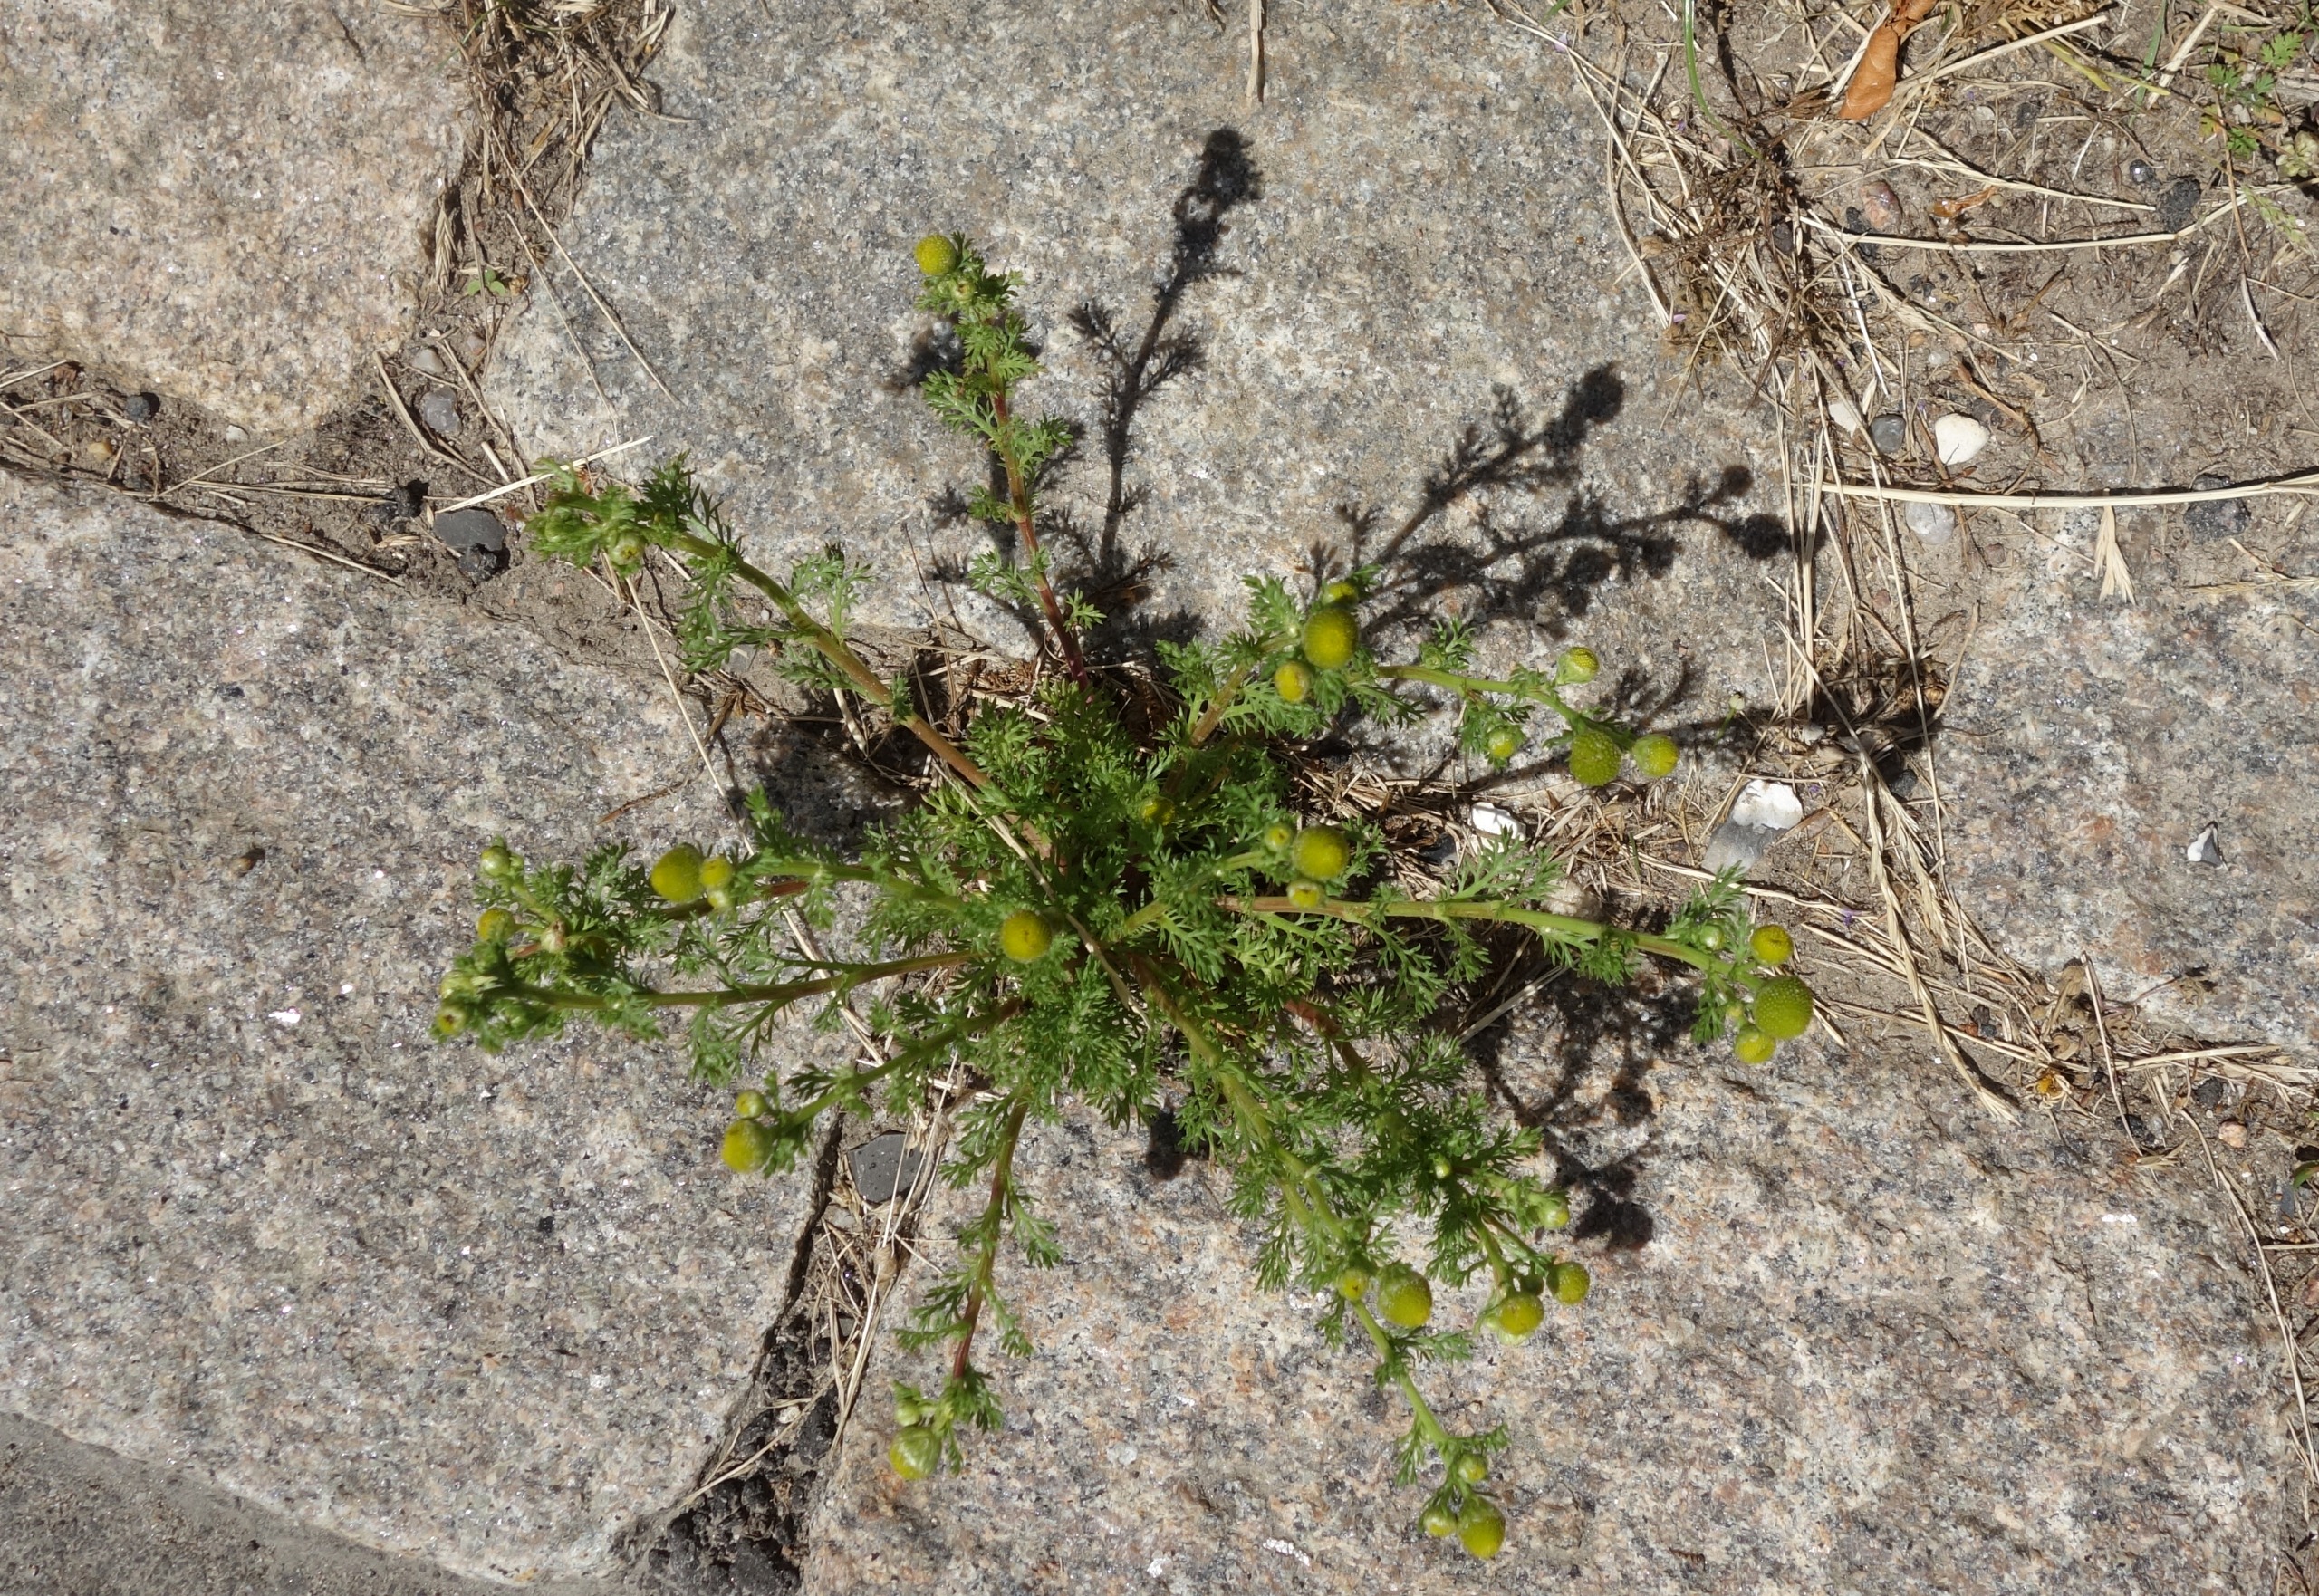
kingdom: Plantae
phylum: Tracheophyta
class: Magnoliopsida
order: Asterales
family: Asteraceae
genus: Matricaria
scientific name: Matricaria discoidea
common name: Skive-kamille
